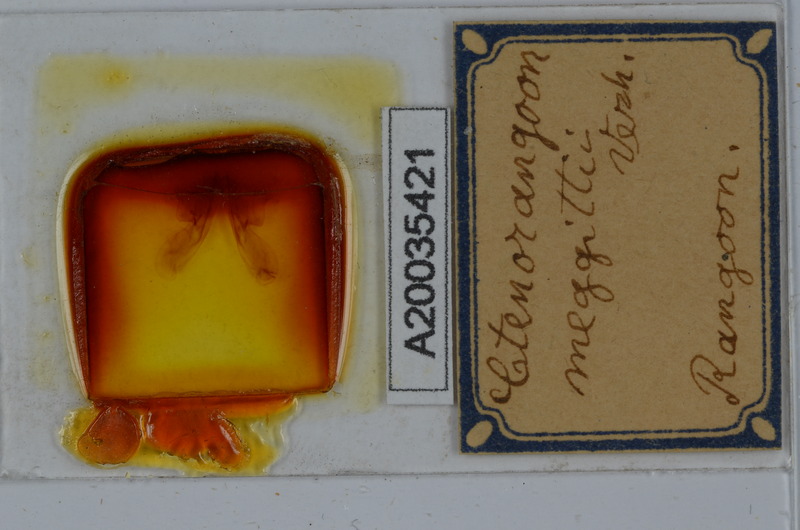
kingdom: Animalia
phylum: Arthropoda
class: Diplopoda
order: Spirostreptida
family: Harpagophoridae
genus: Ctenorangoon
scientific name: Ctenorangoon feae
